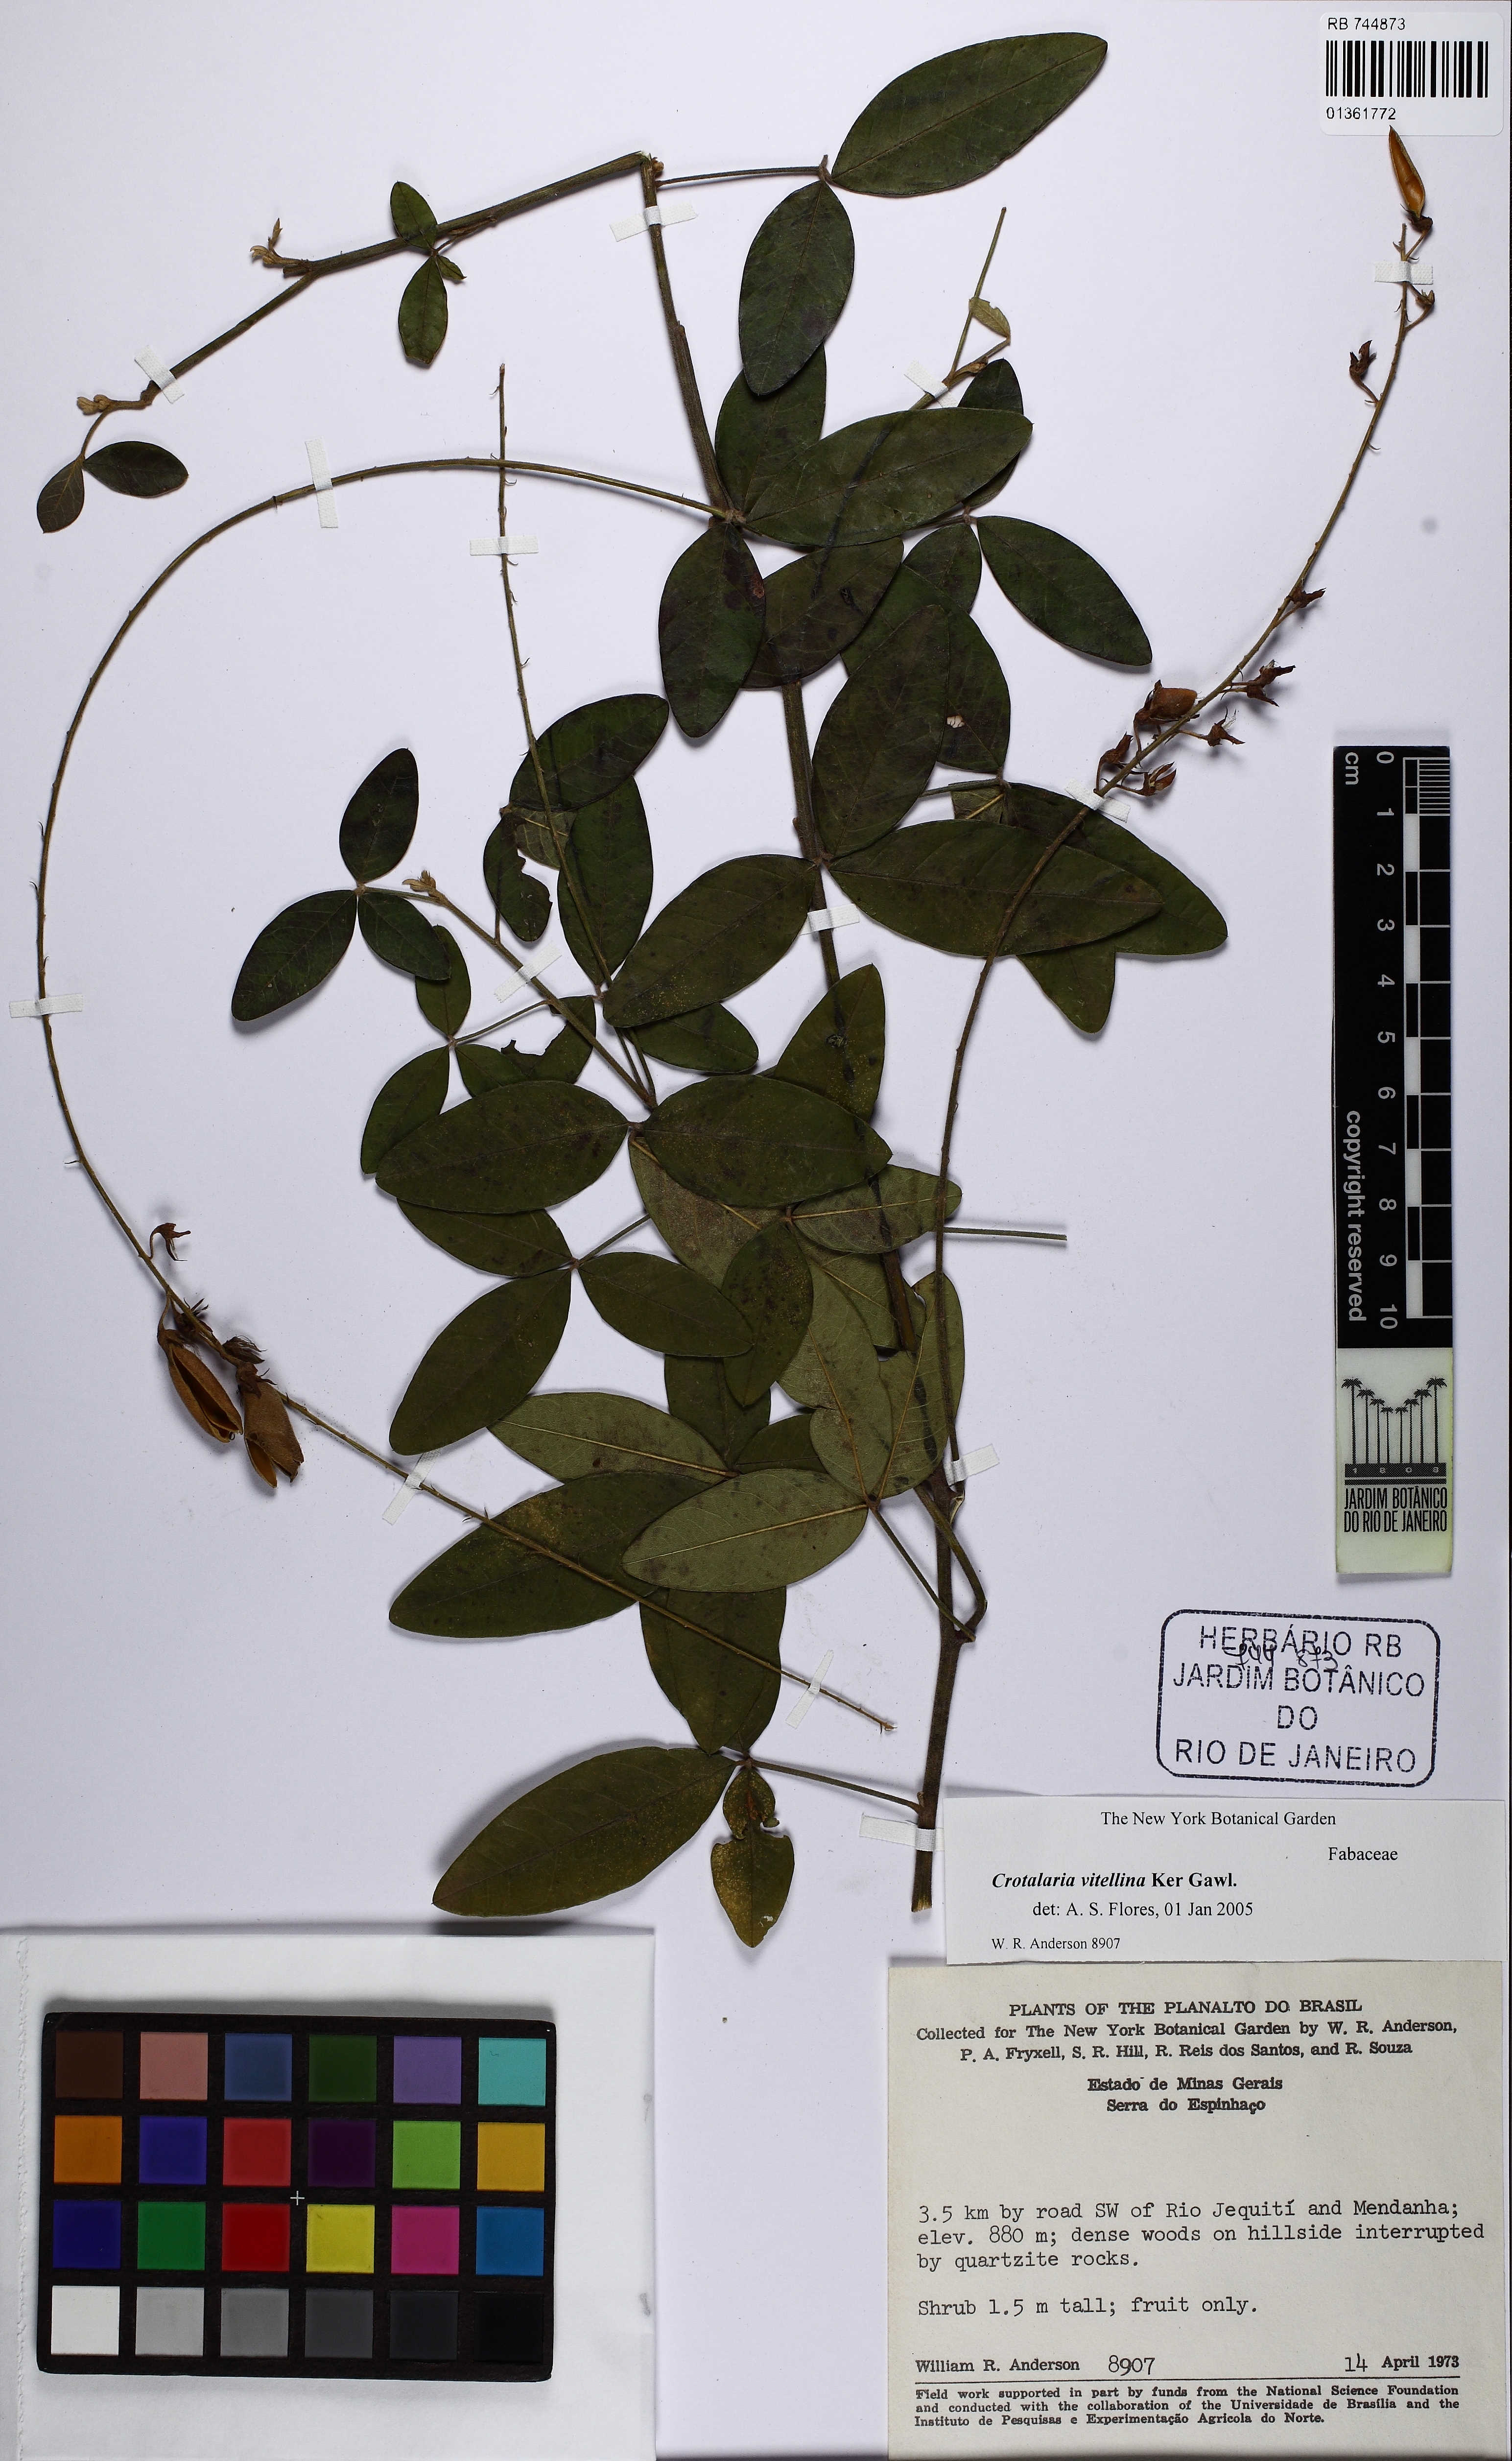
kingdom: Plantae
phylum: Tracheophyta
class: Magnoliopsida
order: Fabales
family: Fabaceae
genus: Crotalaria
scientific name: Crotalaria vitellina
